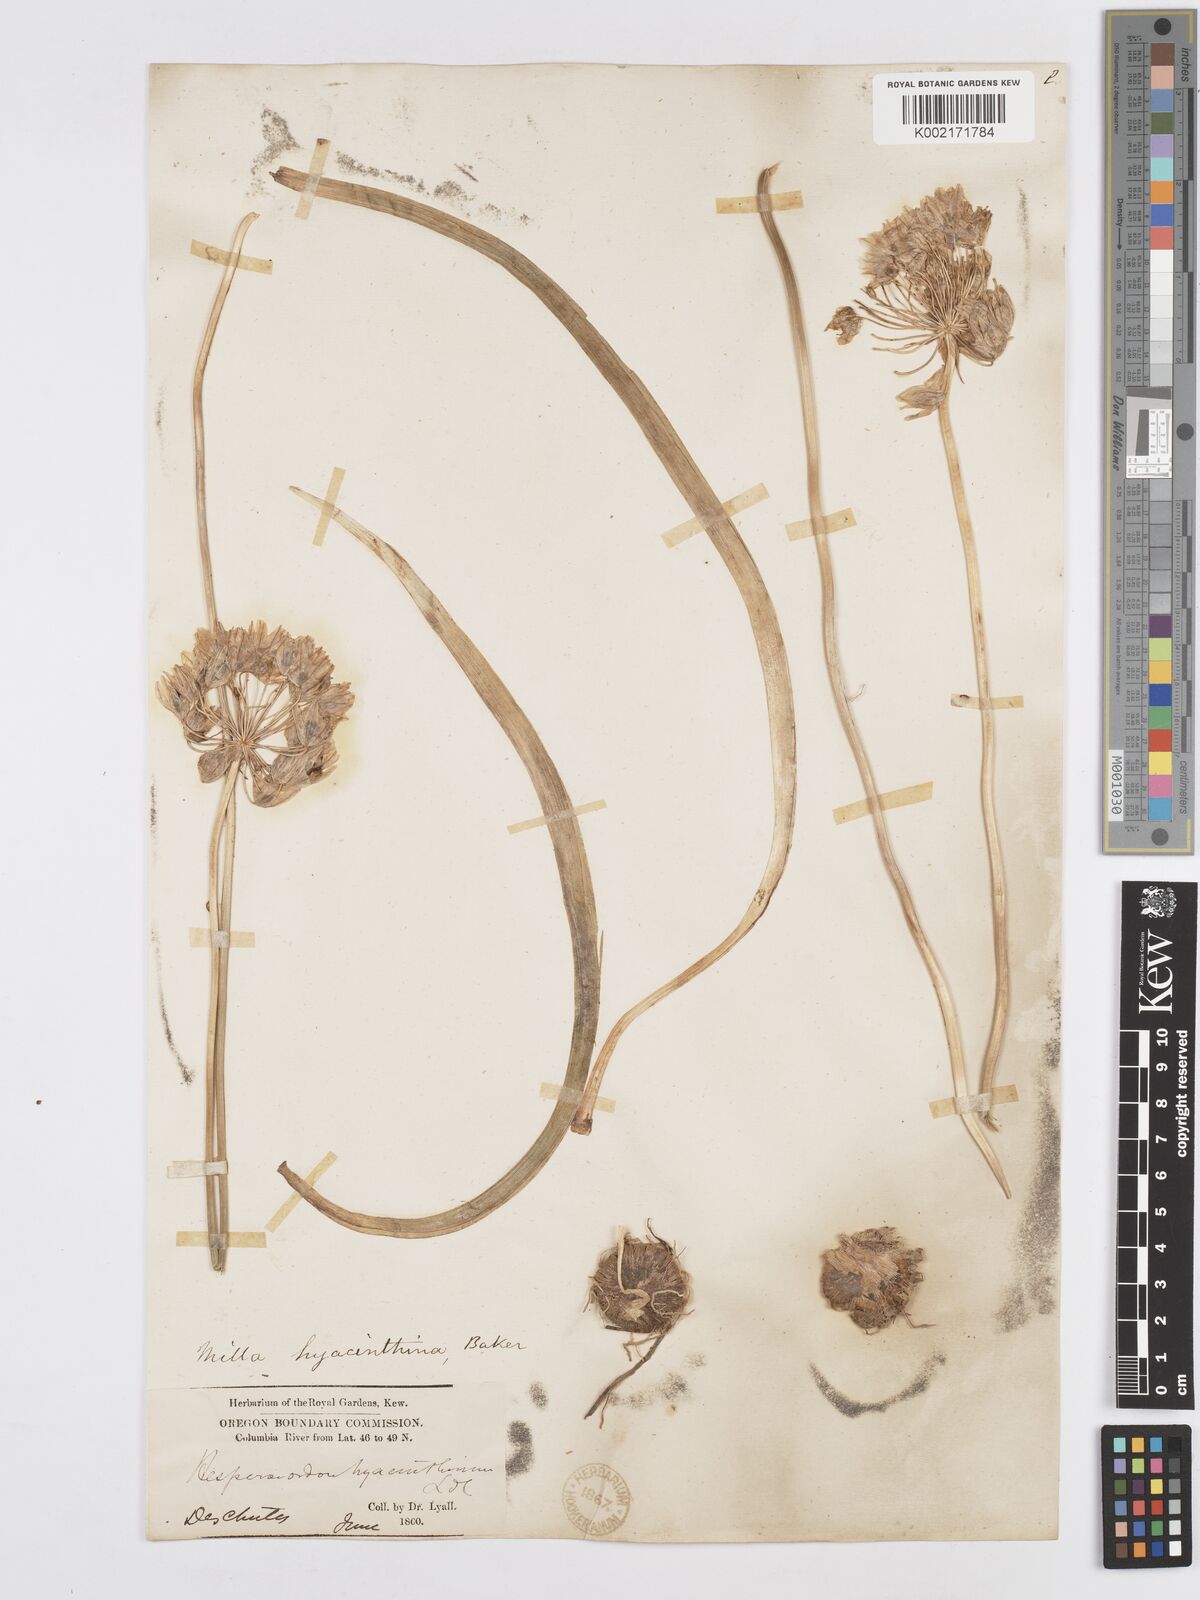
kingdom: Plantae
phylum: Tracheophyta
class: Liliopsida
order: Asparagales
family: Asparagaceae
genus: Triteleia
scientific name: Triteleia hyacinthina
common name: White brodiaea
